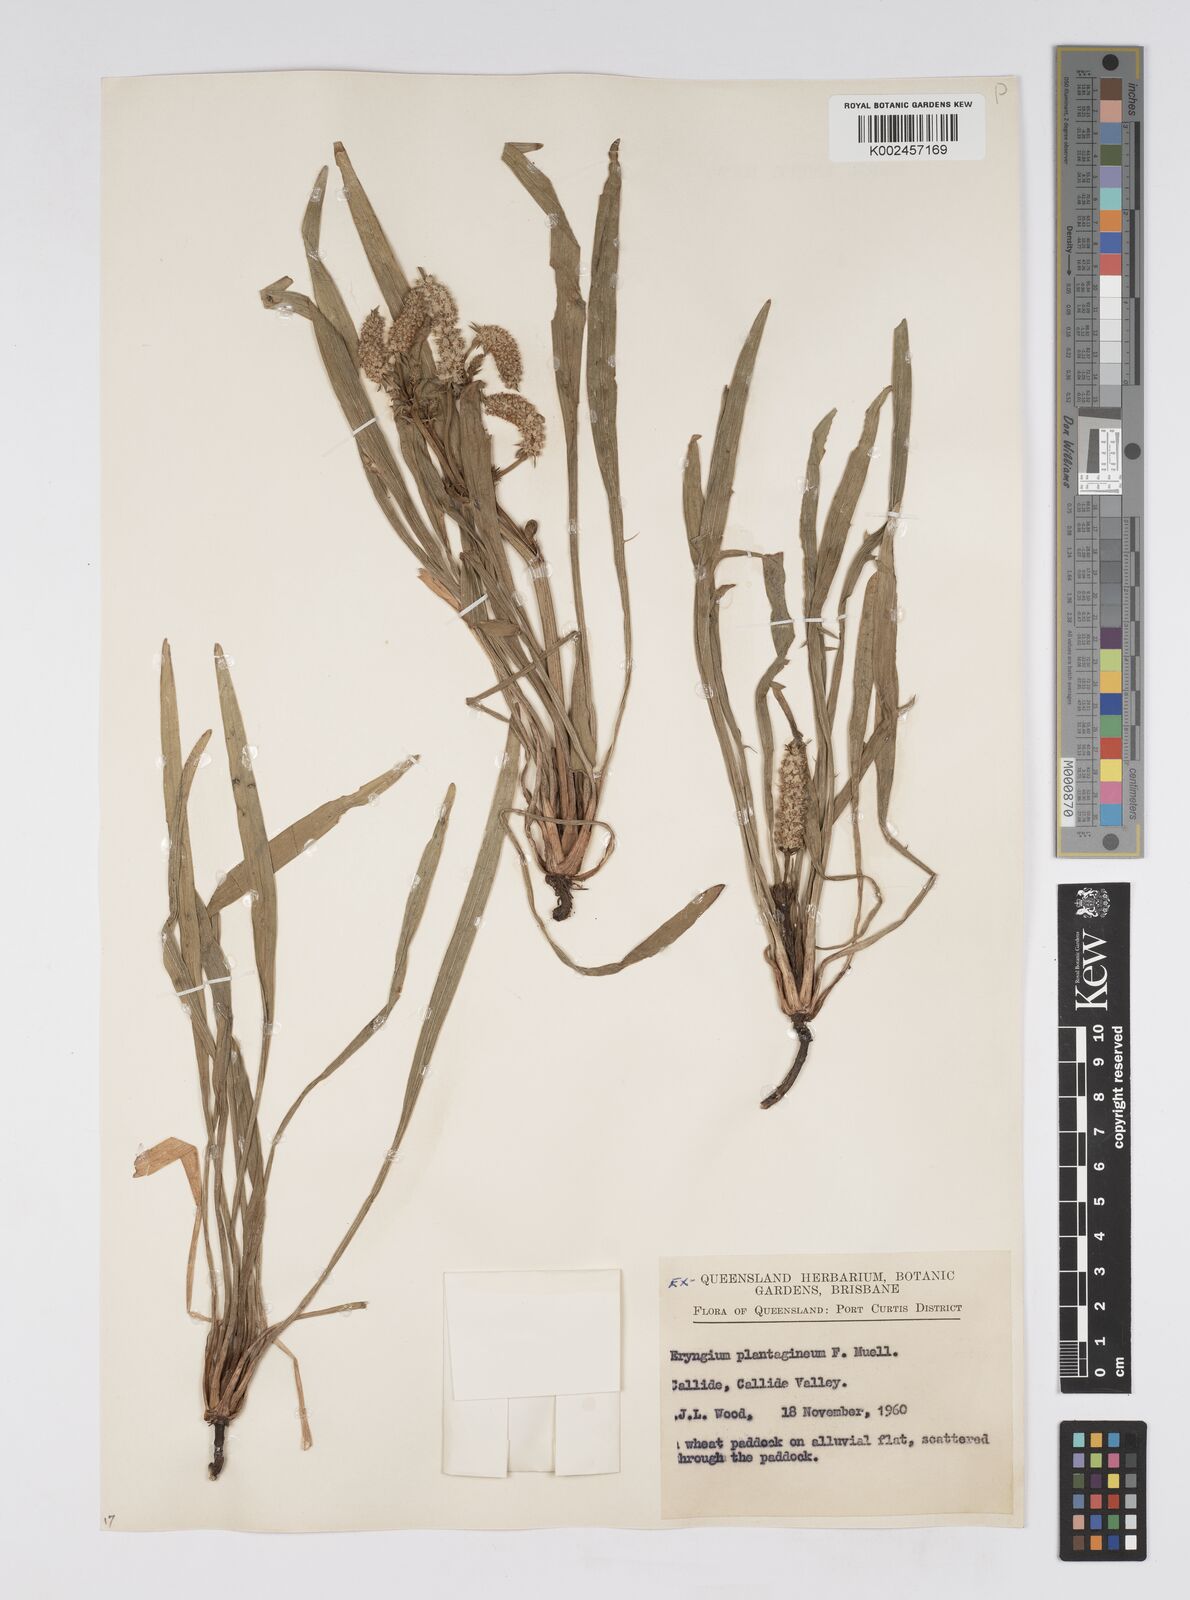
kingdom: Plantae
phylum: Tracheophyta
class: Magnoliopsida
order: Apiales
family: Apiaceae
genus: Eryngium
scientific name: Eryngium plantagineum
